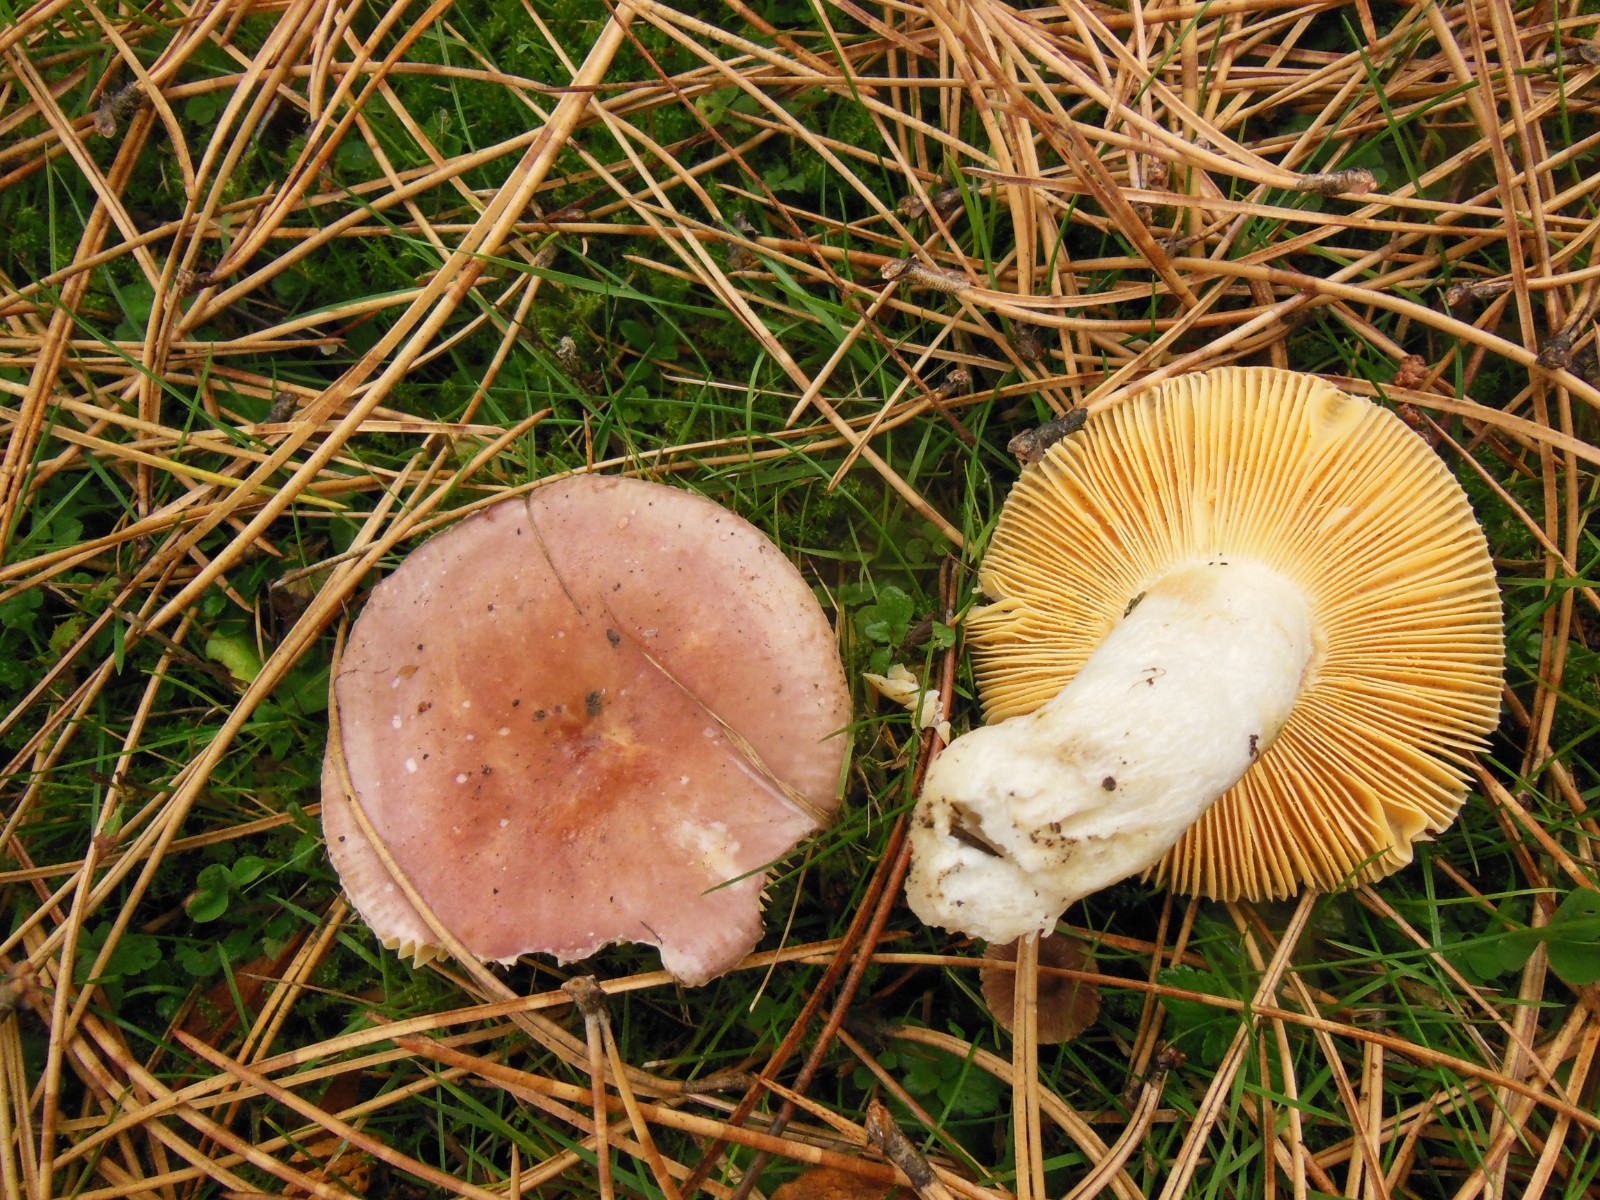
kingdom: Fungi
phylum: Basidiomycota
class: Agaricomycetes
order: Russulales
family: Russulaceae
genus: Russula
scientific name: Russula cessans
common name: fyrre-skørhat
